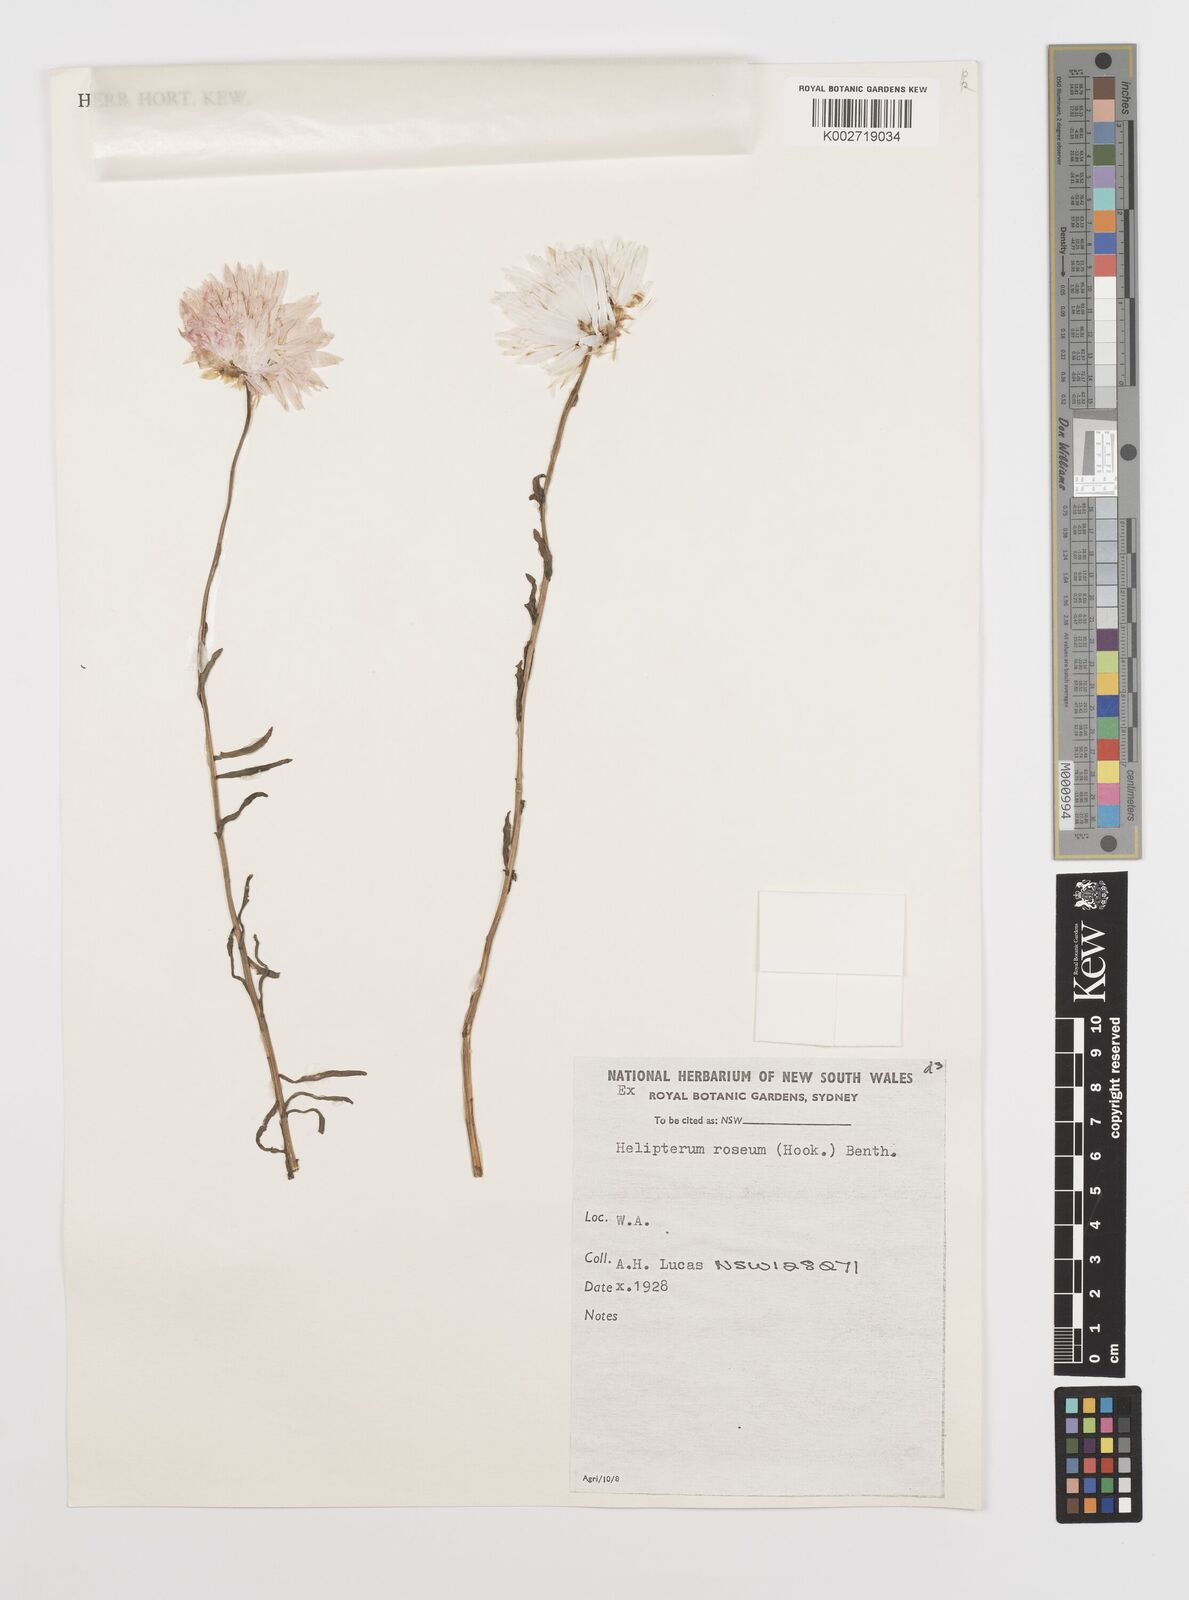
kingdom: Plantae
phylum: Tracheophyta
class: Magnoliopsida
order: Asterales
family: Asteraceae
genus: Rhodanthe
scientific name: Rhodanthe chlorocephala
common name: Rosy sunray
